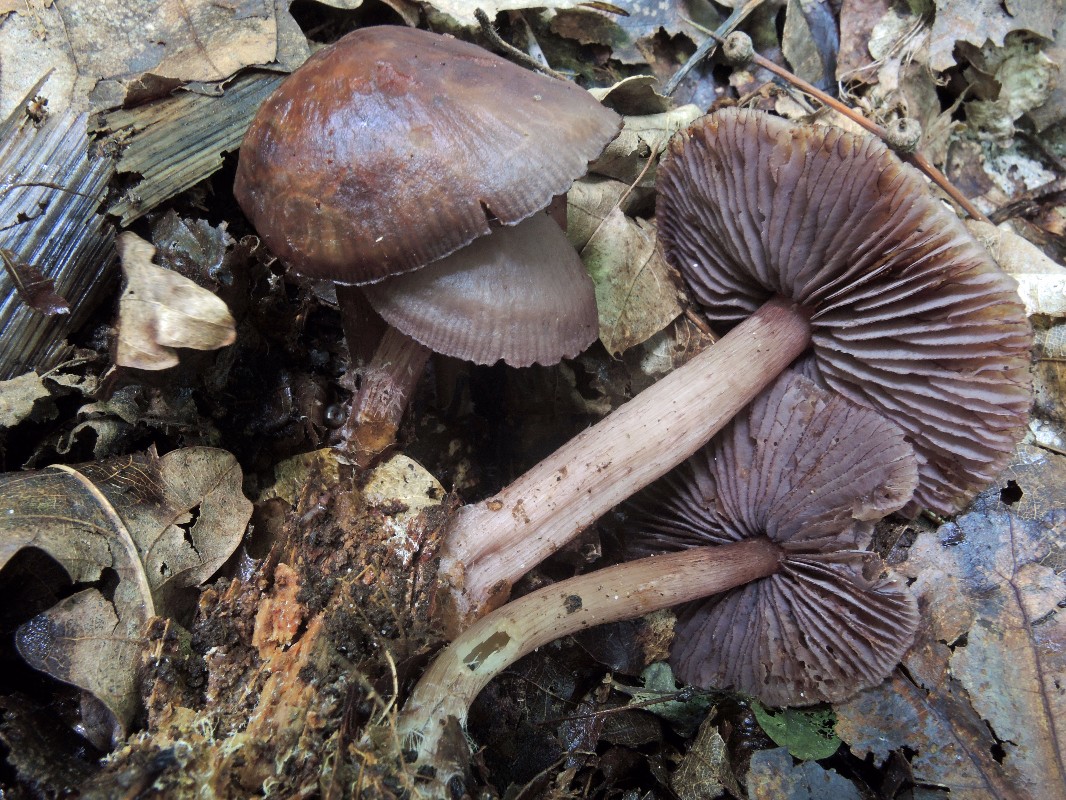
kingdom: Fungi
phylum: Basidiomycota
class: Agaricomycetes
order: Agaricales
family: Mycenaceae
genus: Mycena
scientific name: Mycena pelianthina
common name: mørkbladet huesvamp
